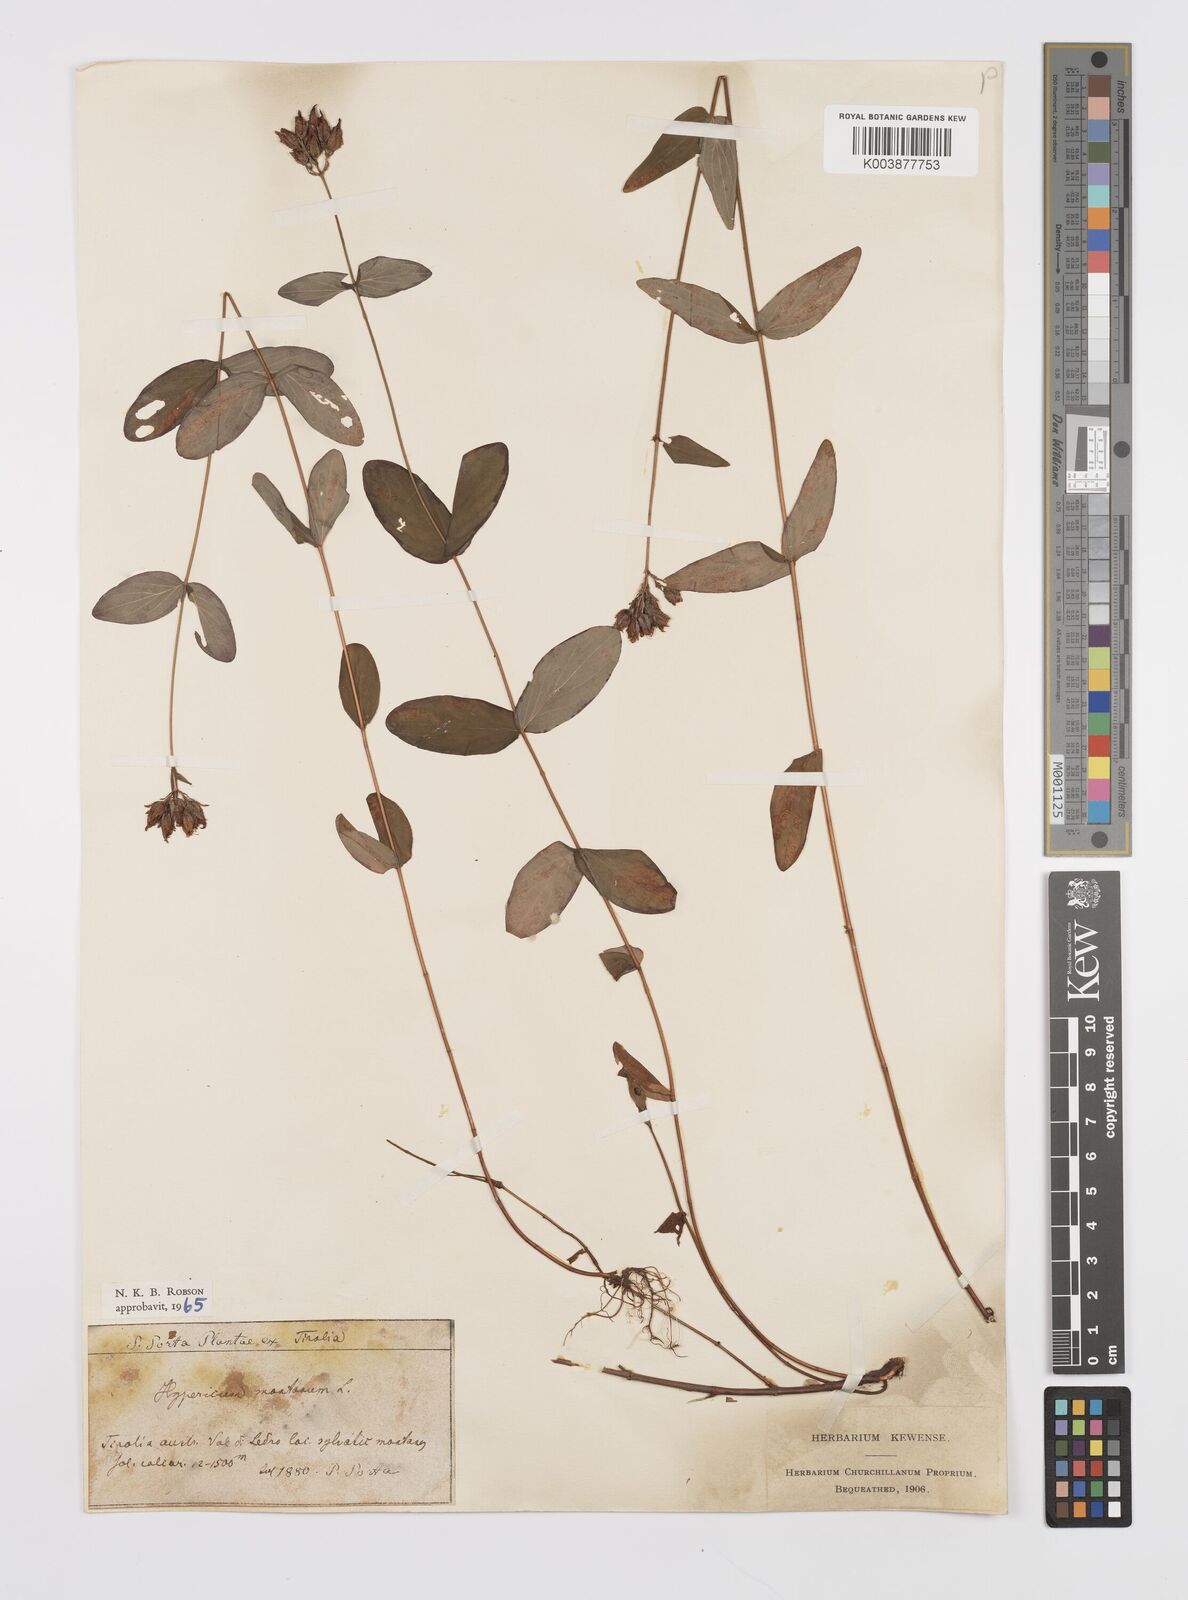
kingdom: Plantae
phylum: Tracheophyta
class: Magnoliopsida
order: Malpighiales
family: Hypericaceae
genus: Hypericum
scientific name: Hypericum montanum
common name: Pale st. john's-wort
